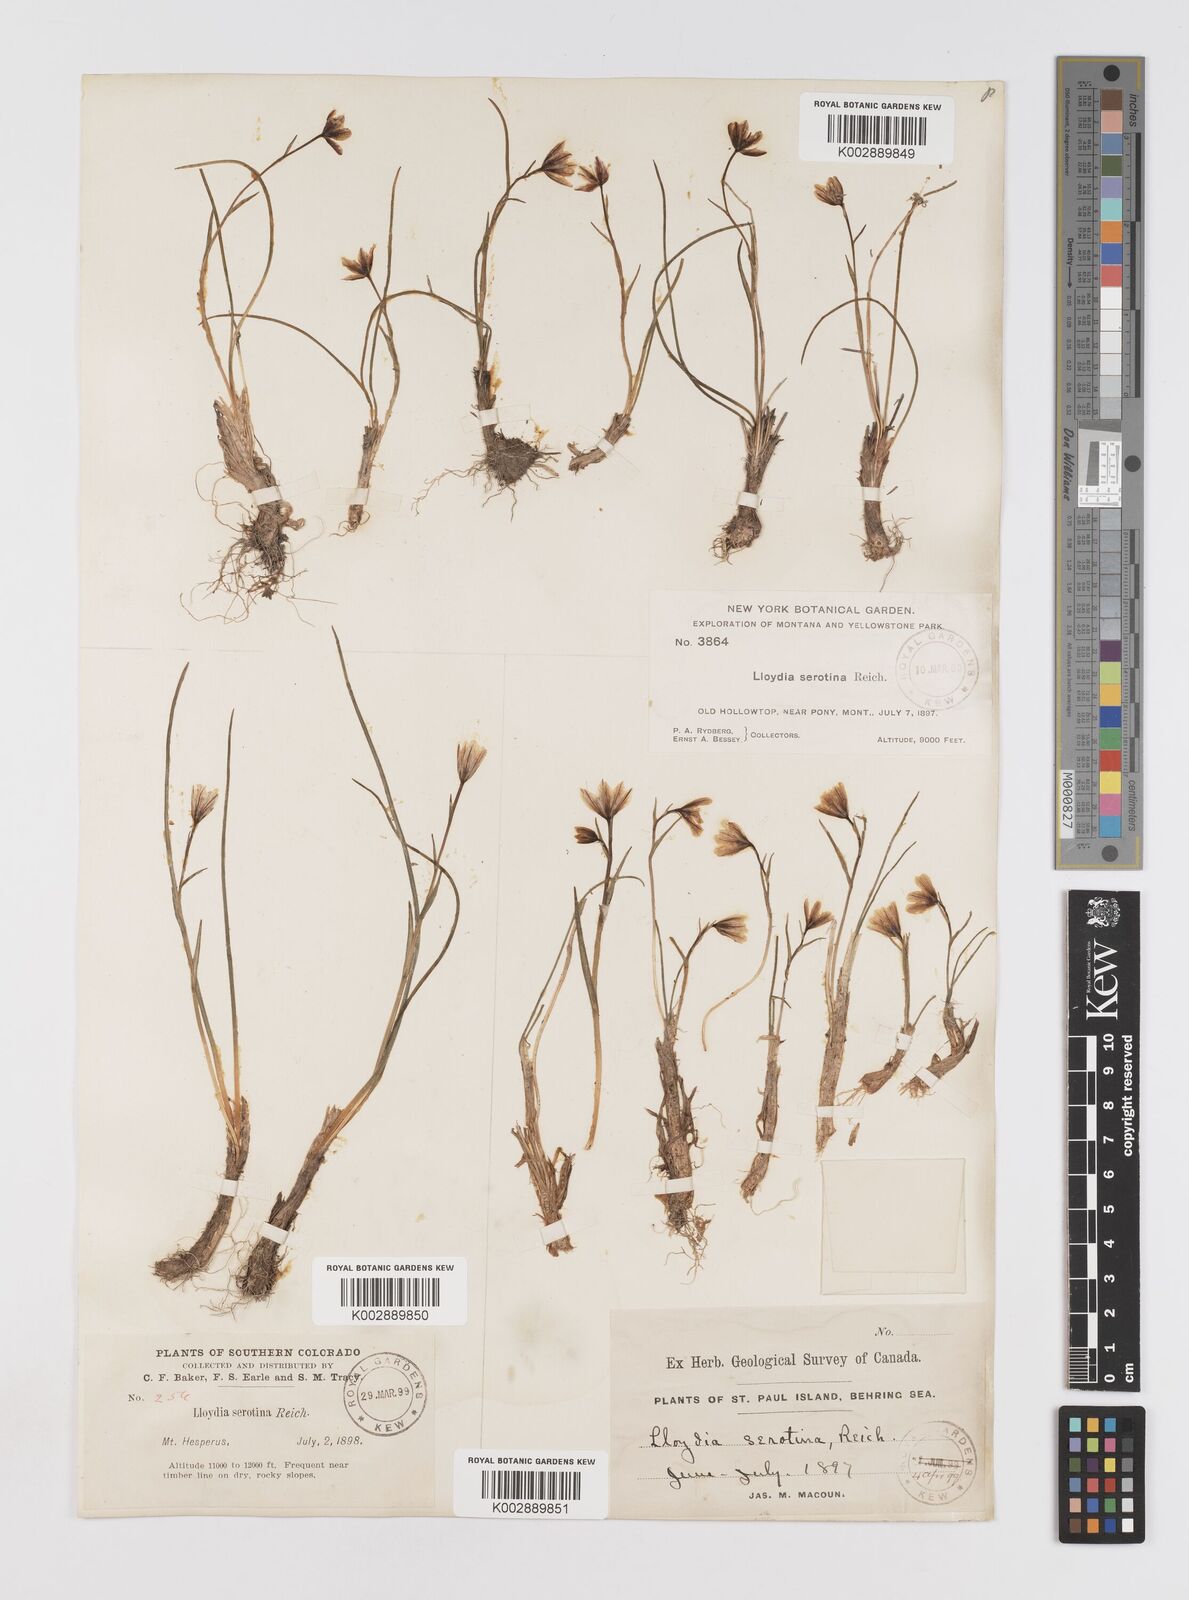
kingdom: Plantae
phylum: Tracheophyta
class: Liliopsida
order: Liliales
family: Liliaceae
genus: Gagea
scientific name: Gagea serotina
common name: Snowdon lily
